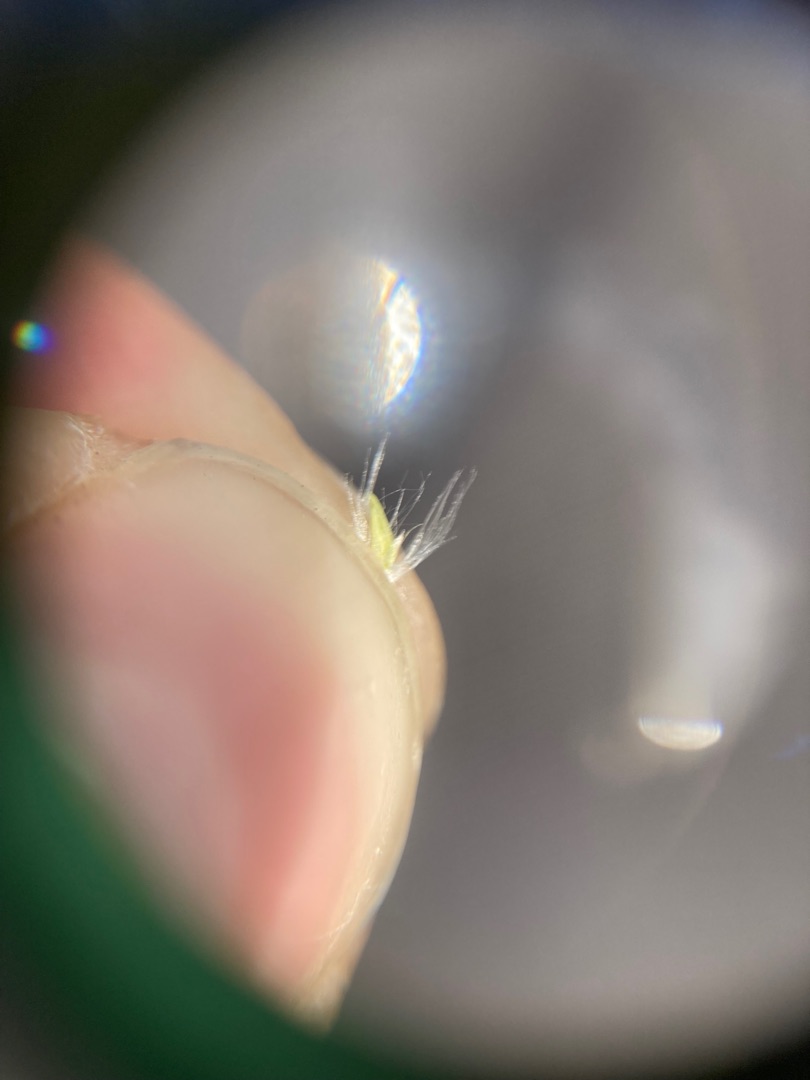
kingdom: Plantae
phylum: Tracheophyta
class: Liliopsida
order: Poales
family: Poaceae
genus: Calamagrostis
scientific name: Calamagrostis epigejos
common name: Bjerg-rørhvene
